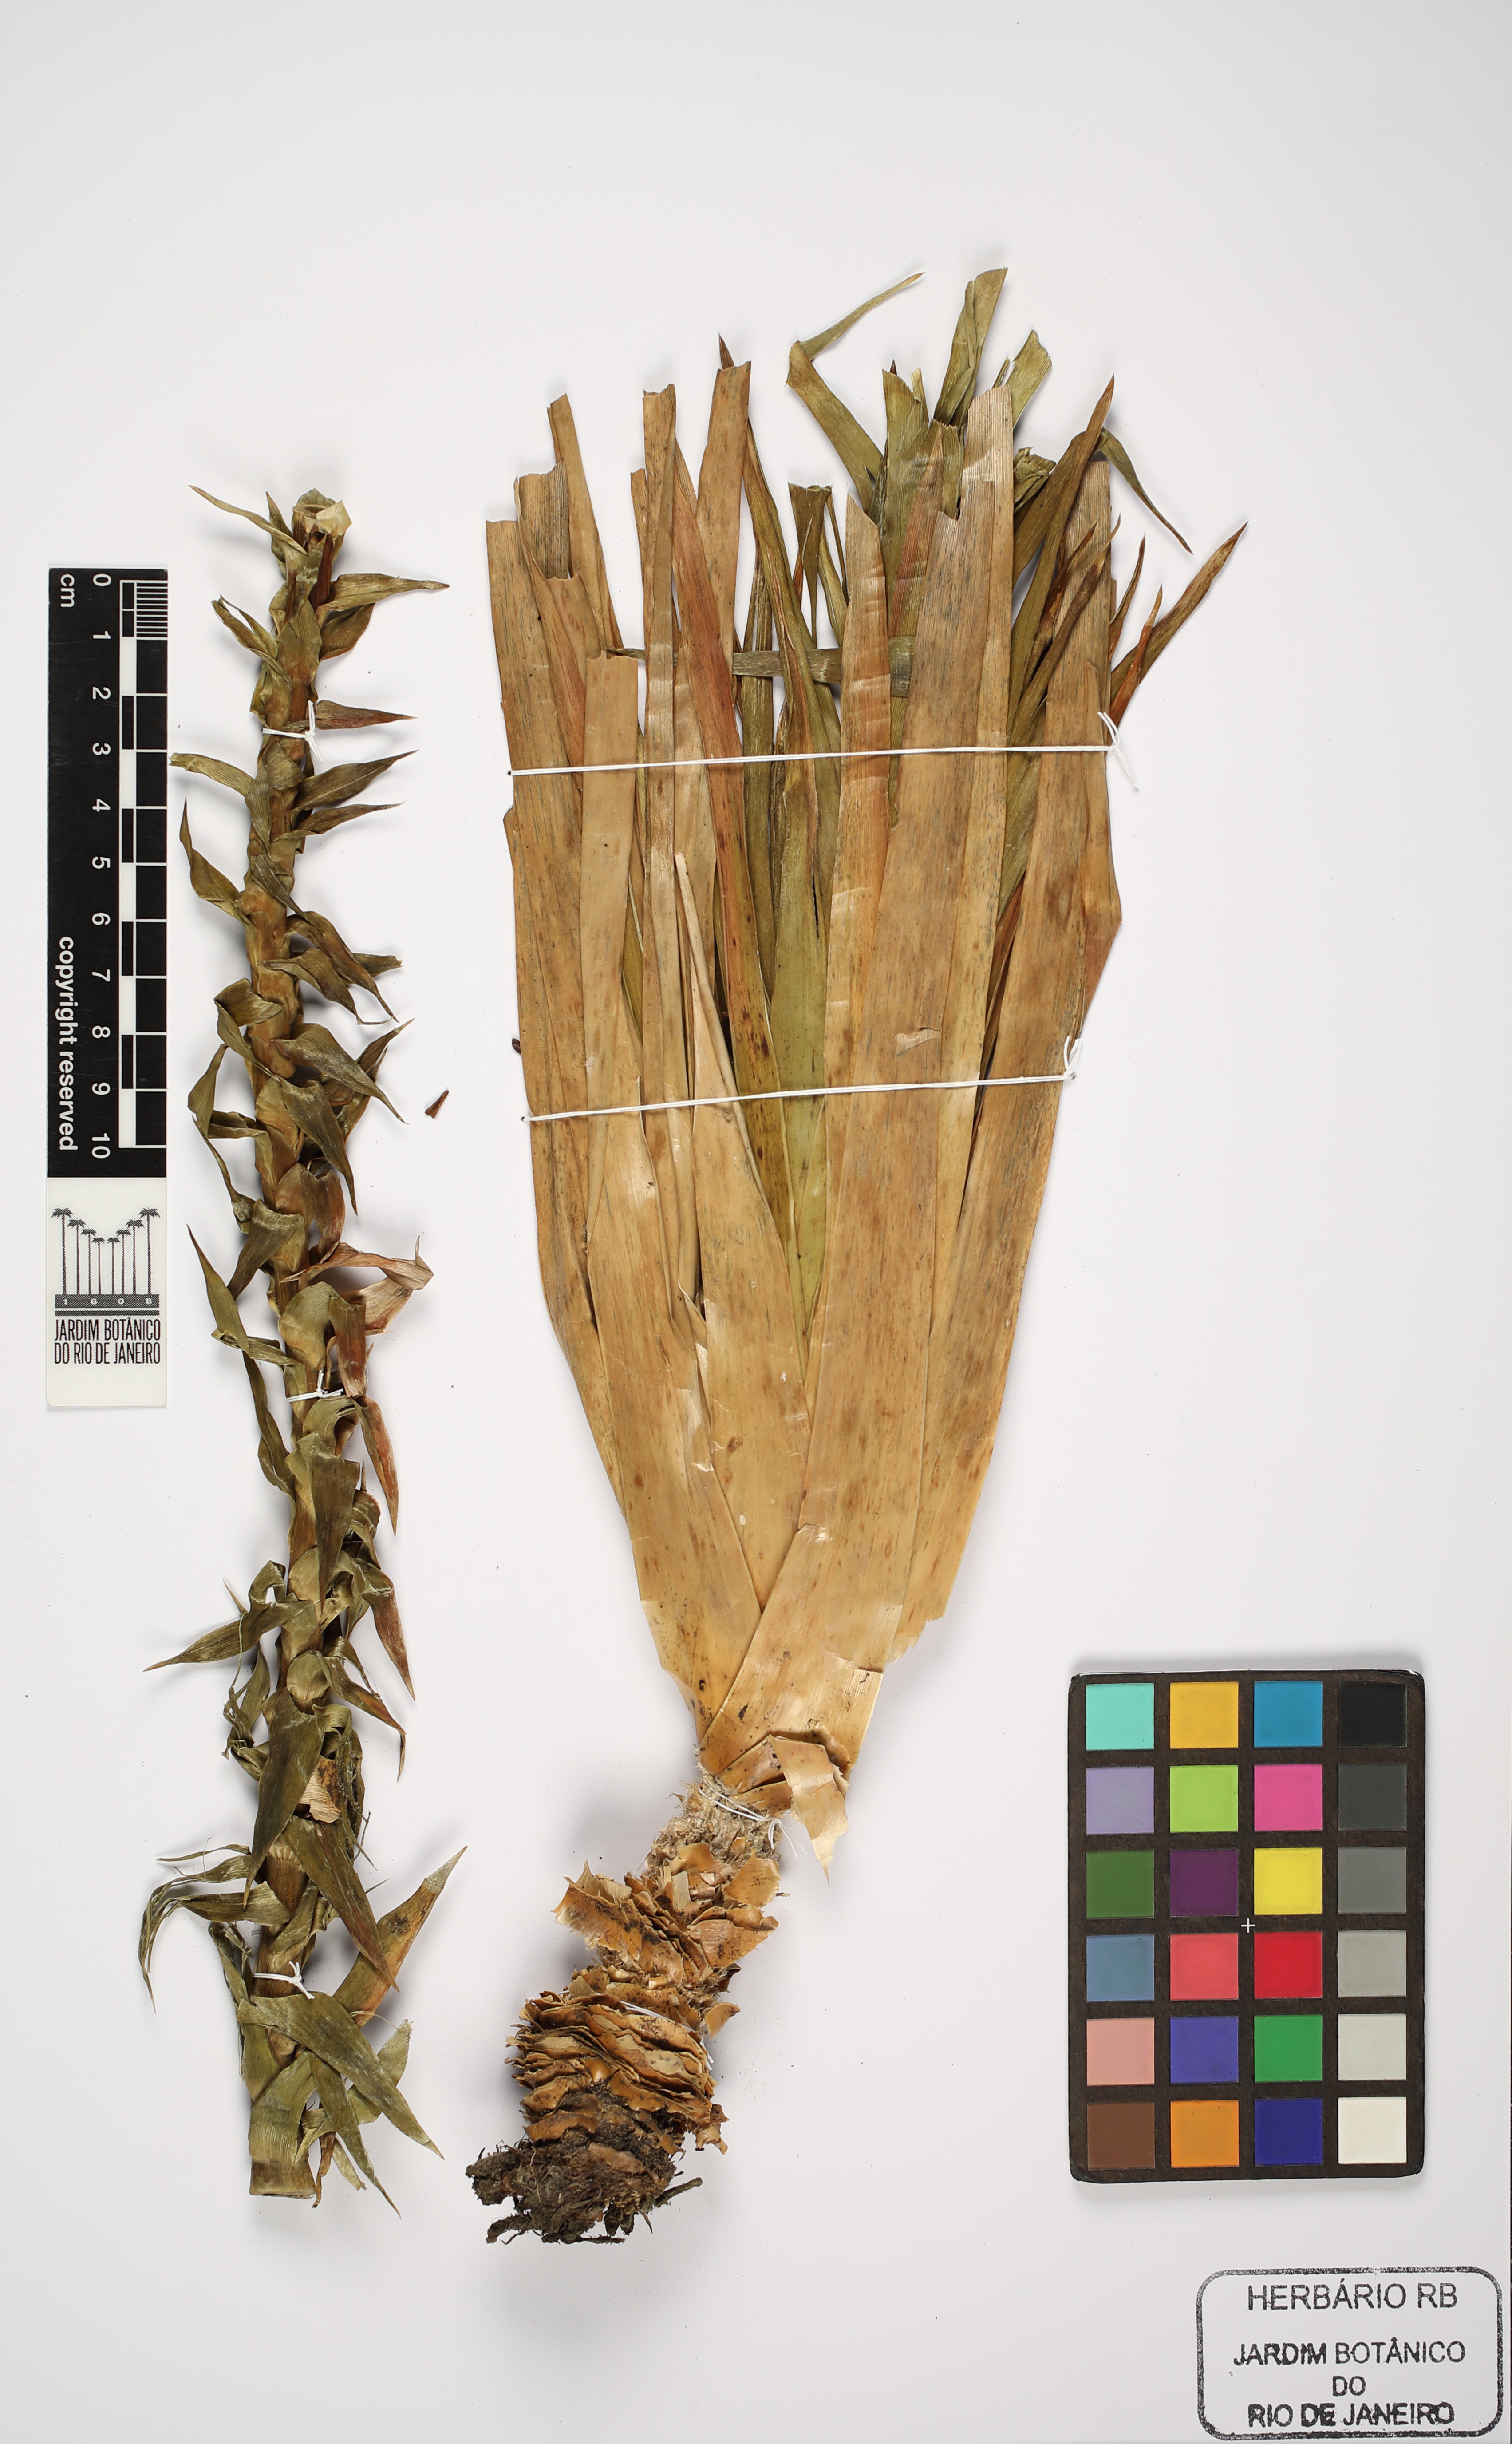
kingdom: Plantae
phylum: Tracheophyta
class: Liliopsida
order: Poales
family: Eriocaulaceae
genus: Paepalanthus
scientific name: Paepalanthus
